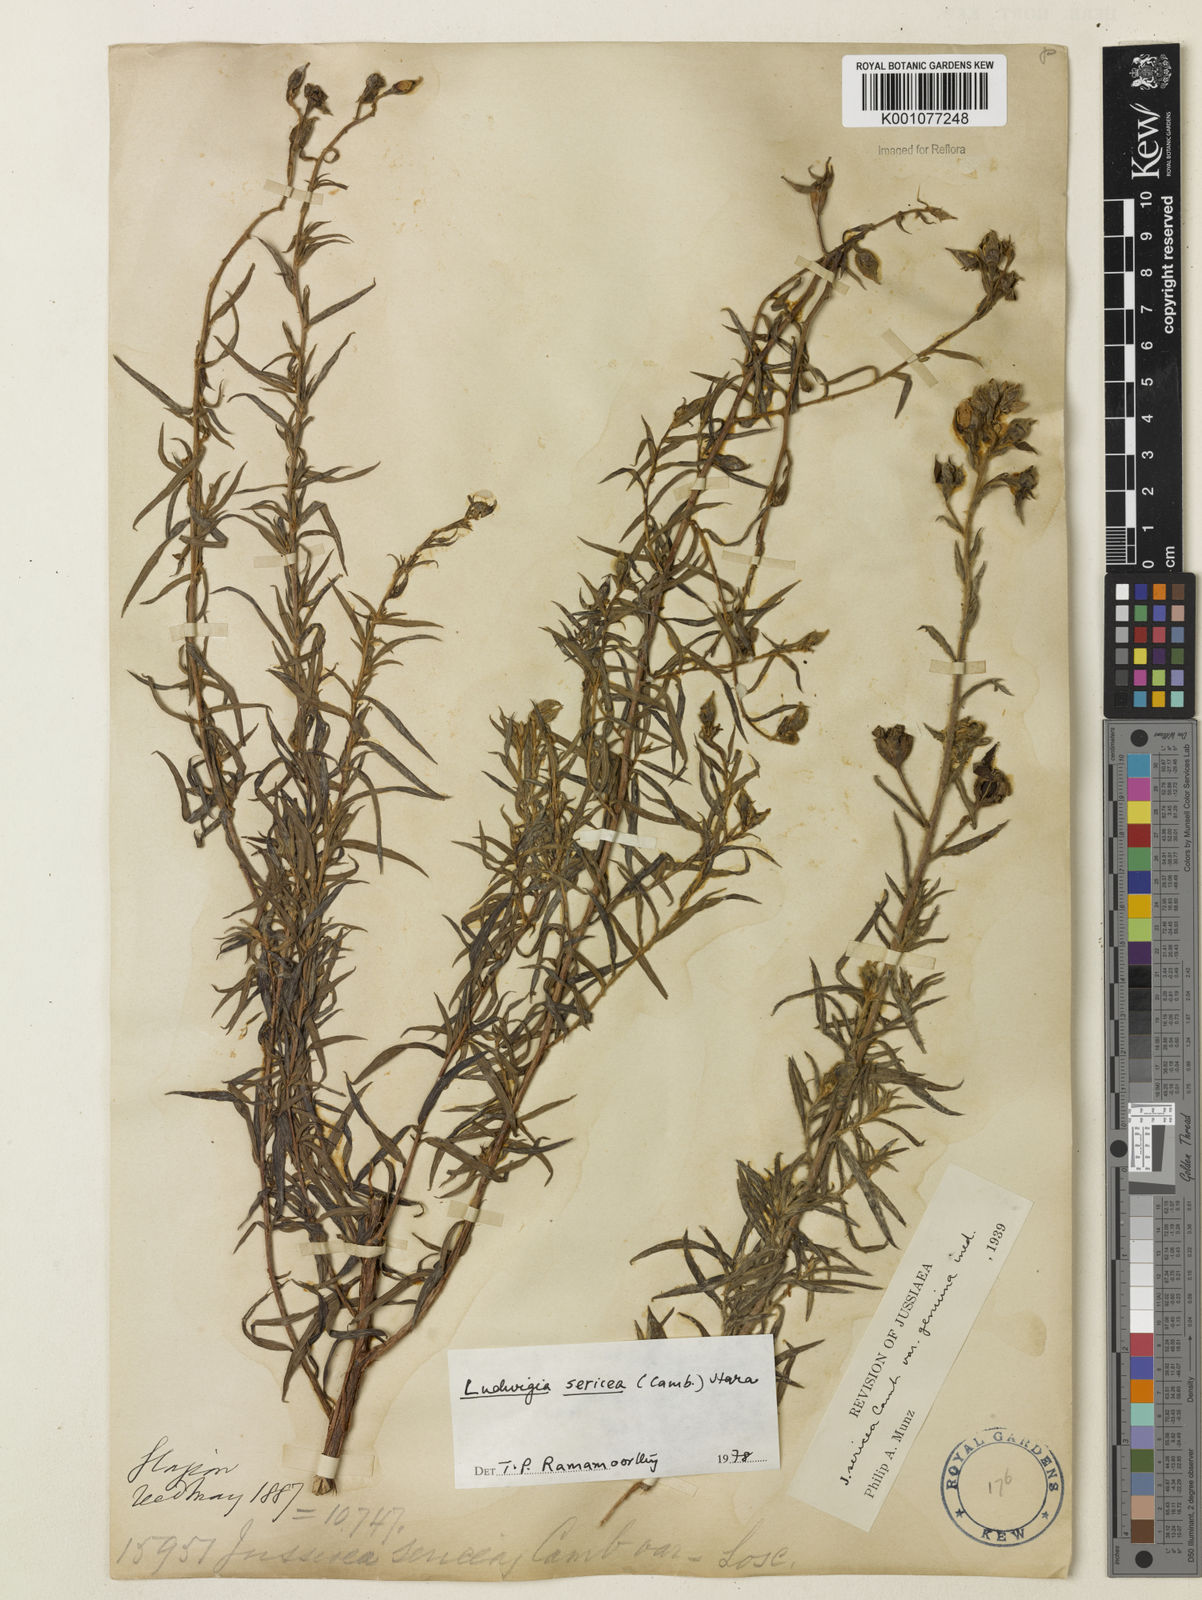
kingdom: Plantae
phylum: Tracheophyta
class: Magnoliopsida
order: Myrtales
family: Onagraceae
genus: Ludwigia
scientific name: Ludwigia sericea
